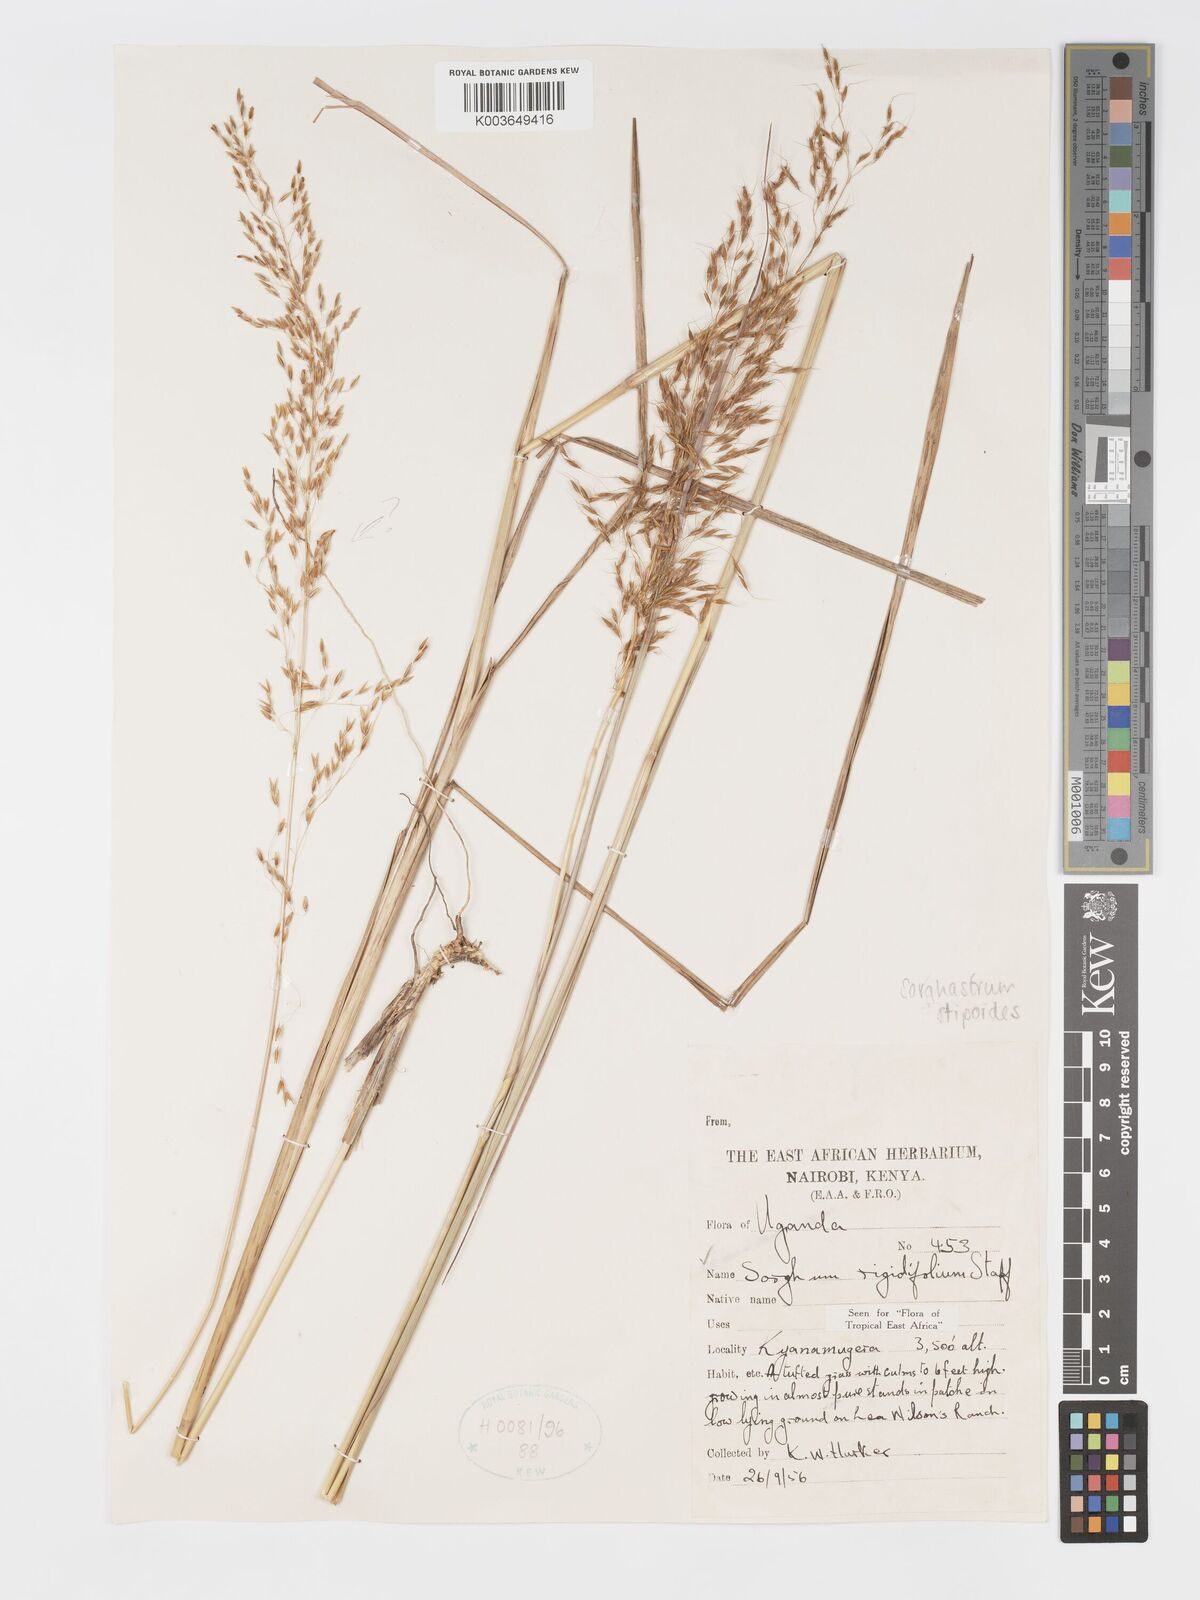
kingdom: Plantae
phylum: Tracheophyta
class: Liliopsida
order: Poales
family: Poaceae
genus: Sorghastrum
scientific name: Sorghastrum stipoides
